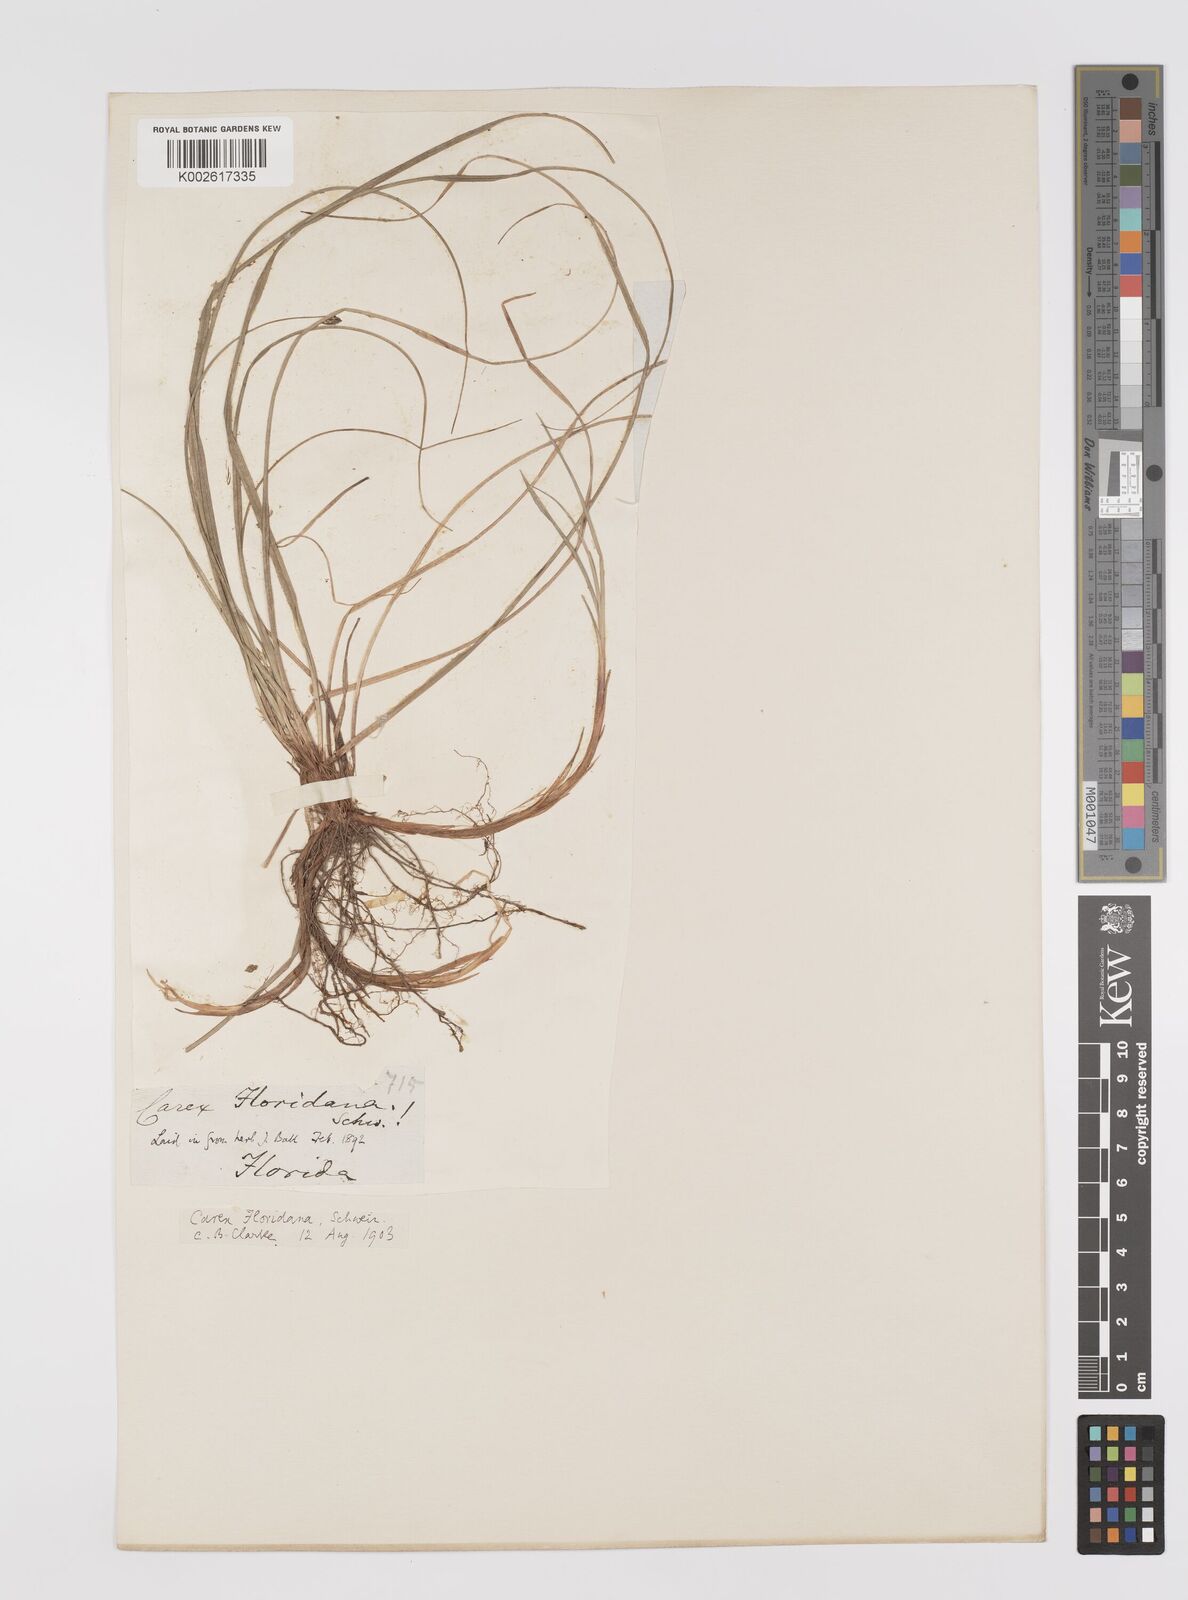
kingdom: Plantae
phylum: Tracheophyta
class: Liliopsida
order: Poales
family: Cyperaceae
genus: Carex
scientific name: Carex floridana
